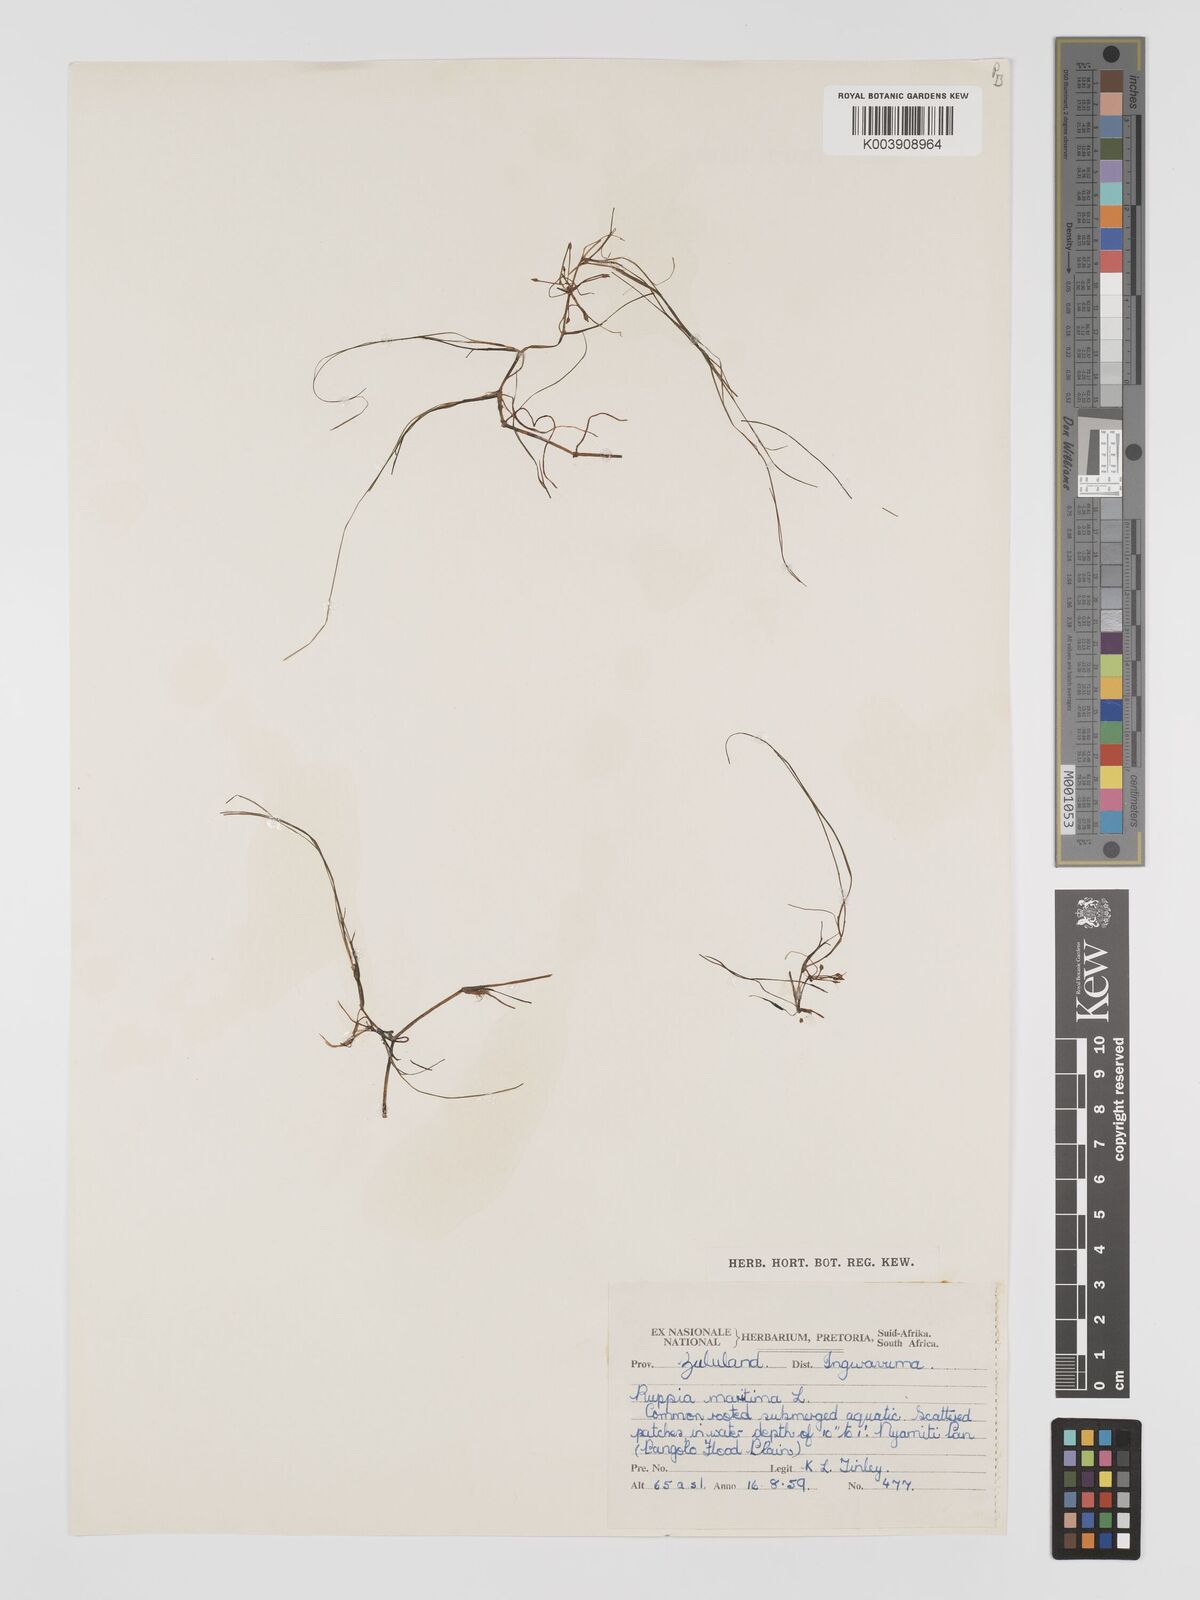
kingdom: Plantae
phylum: Tracheophyta
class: Liliopsida
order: Alismatales
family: Ruppiaceae
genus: Ruppia
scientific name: Ruppia maritima
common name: Beaked tasselweed
